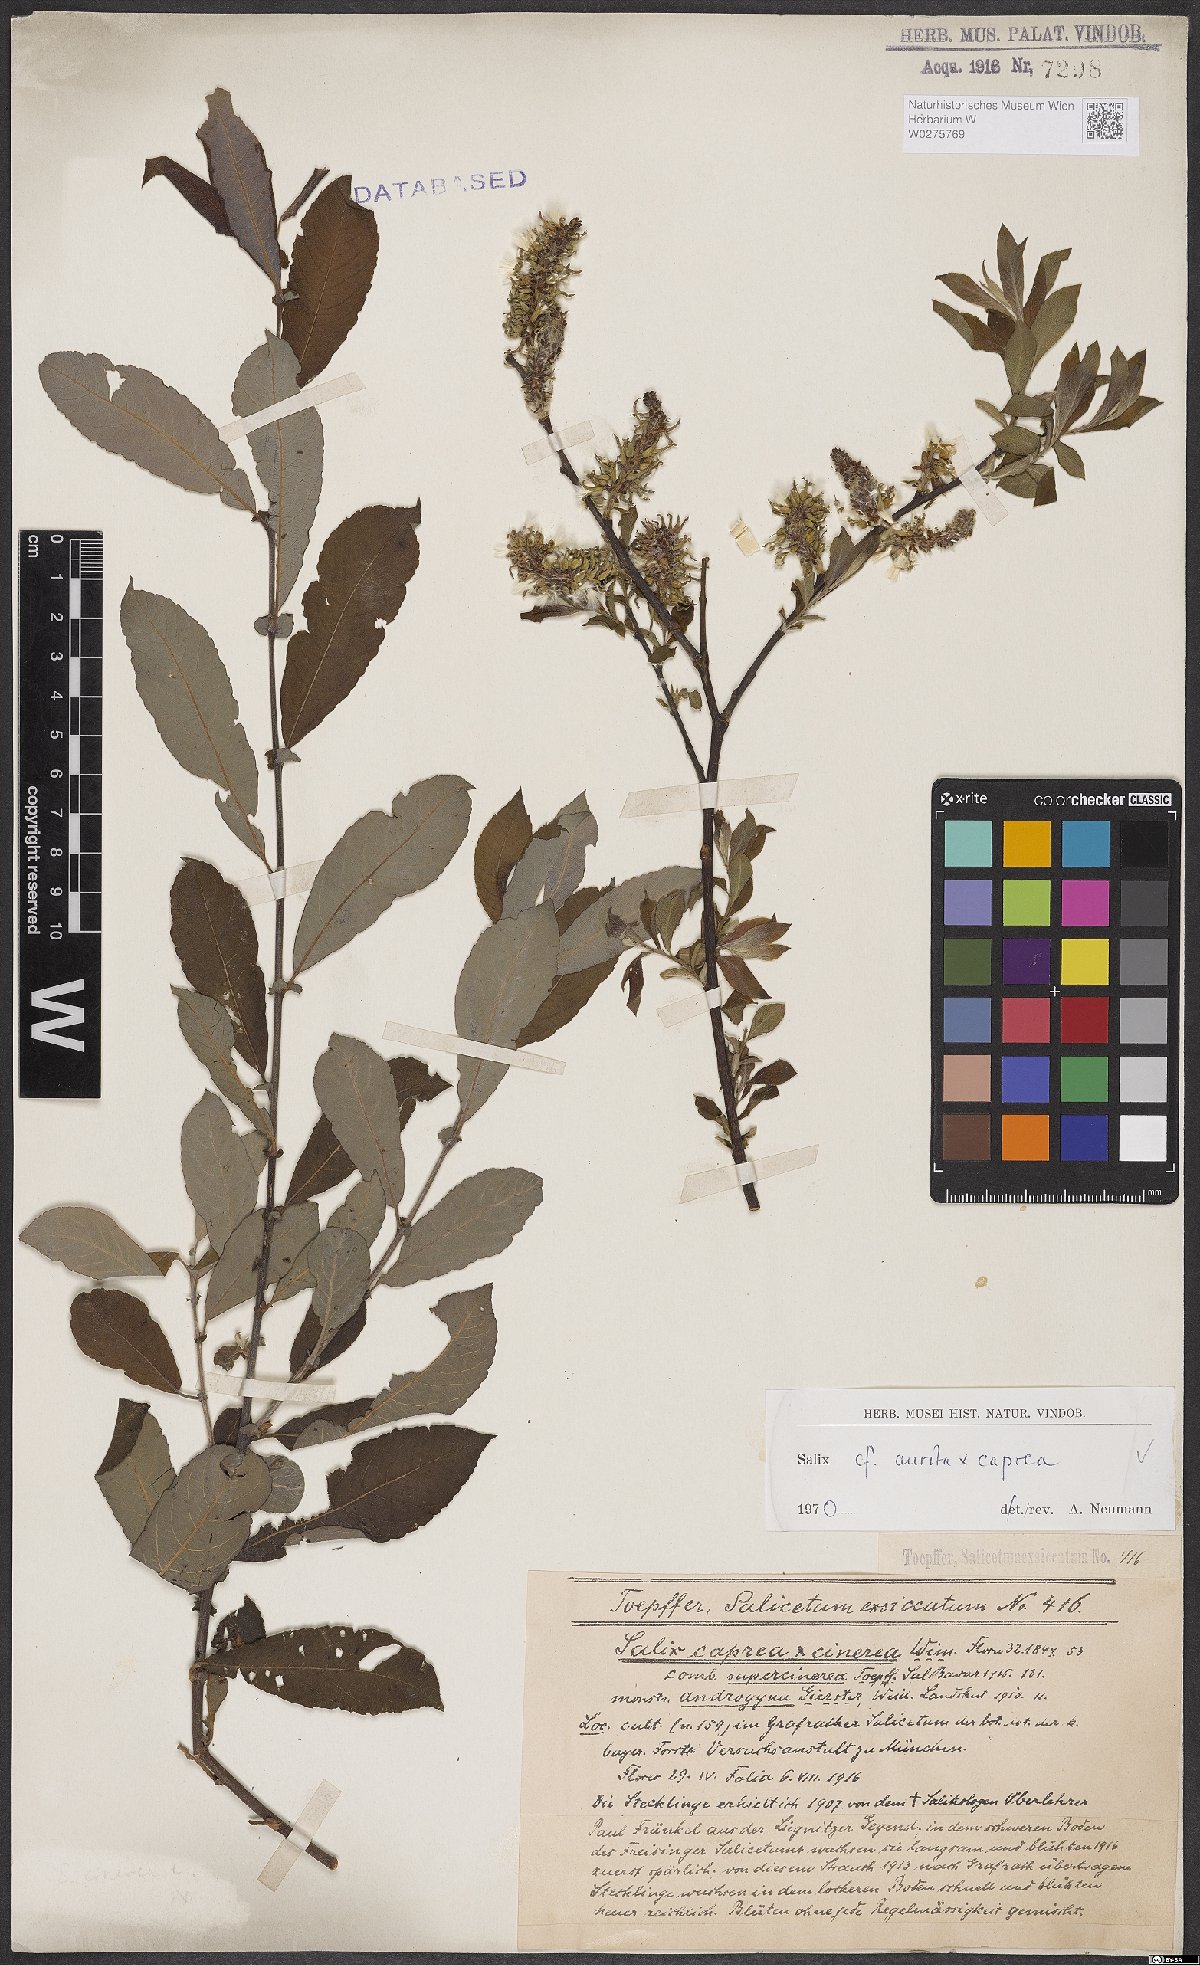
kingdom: Plantae
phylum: Tracheophyta
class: Magnoliopsida
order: Malpighiales
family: Salicaceae
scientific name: Salicaceae
